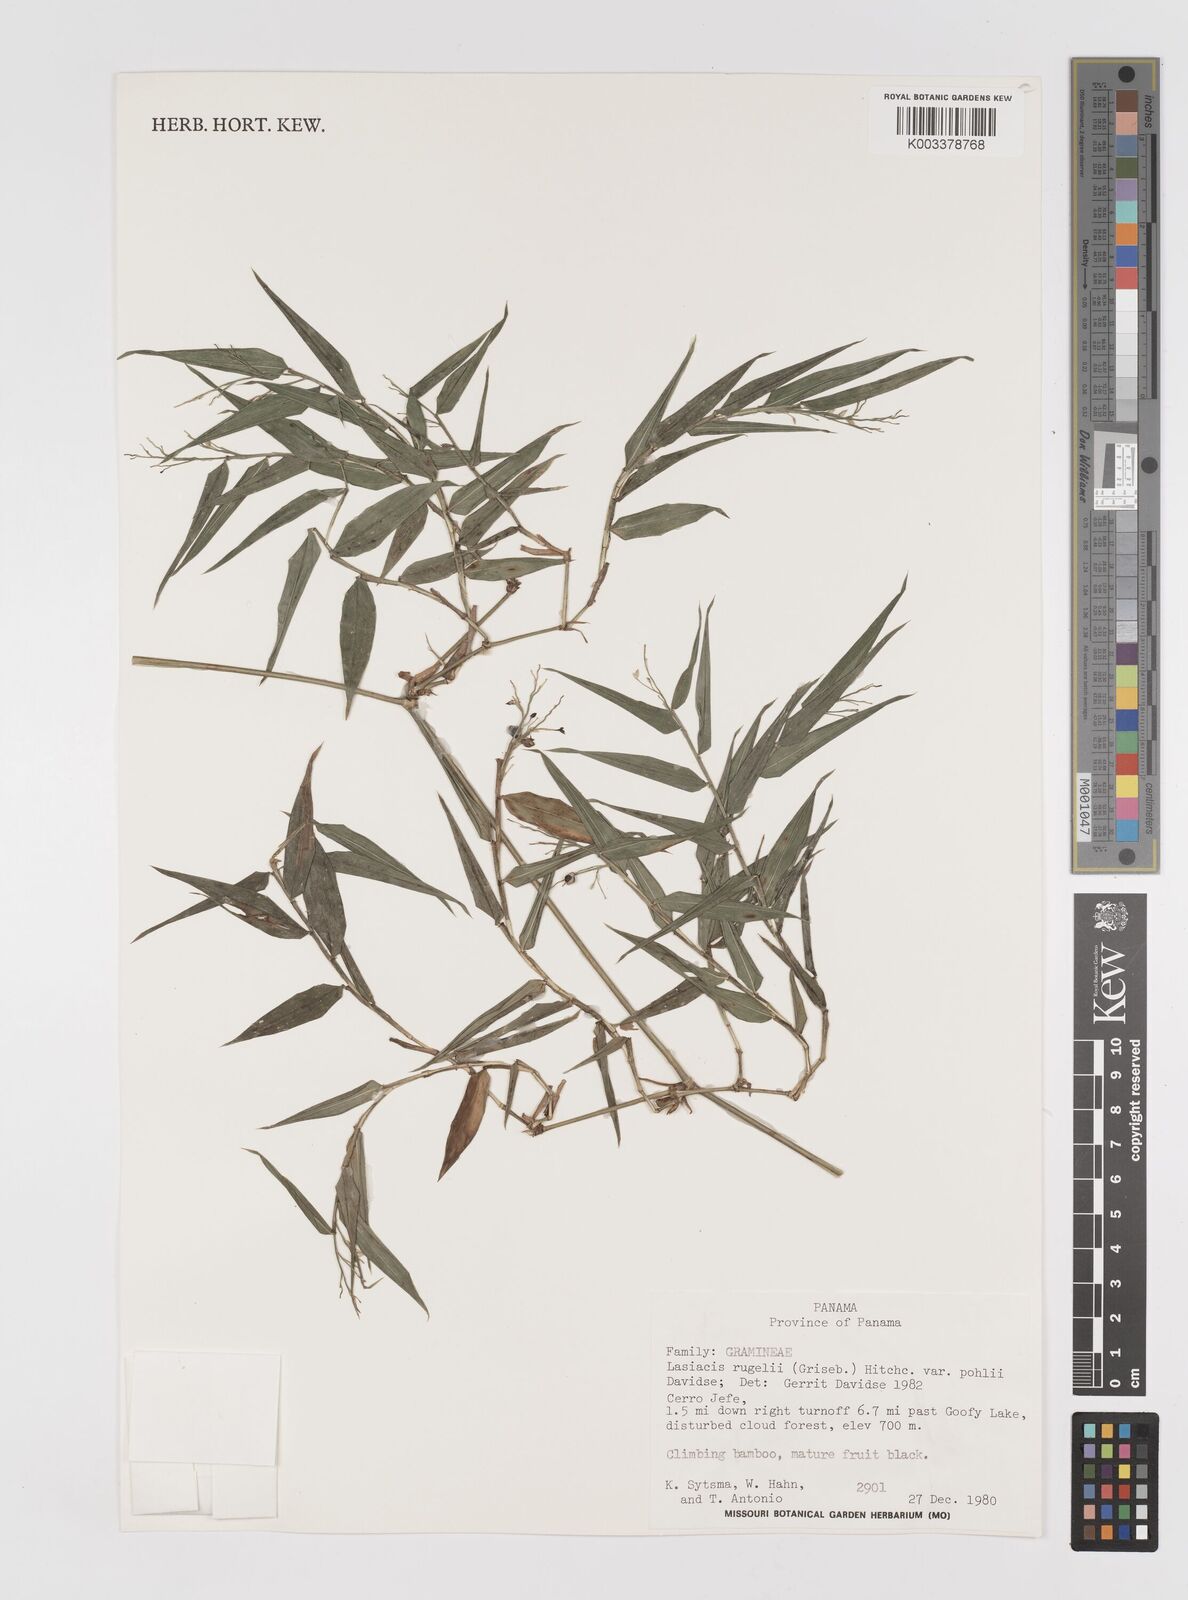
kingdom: Plantae
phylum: Tracheophyta
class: Liliopsida
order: Poales
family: Poaceae
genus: Lasiacis
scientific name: Lasiacis rugelii
